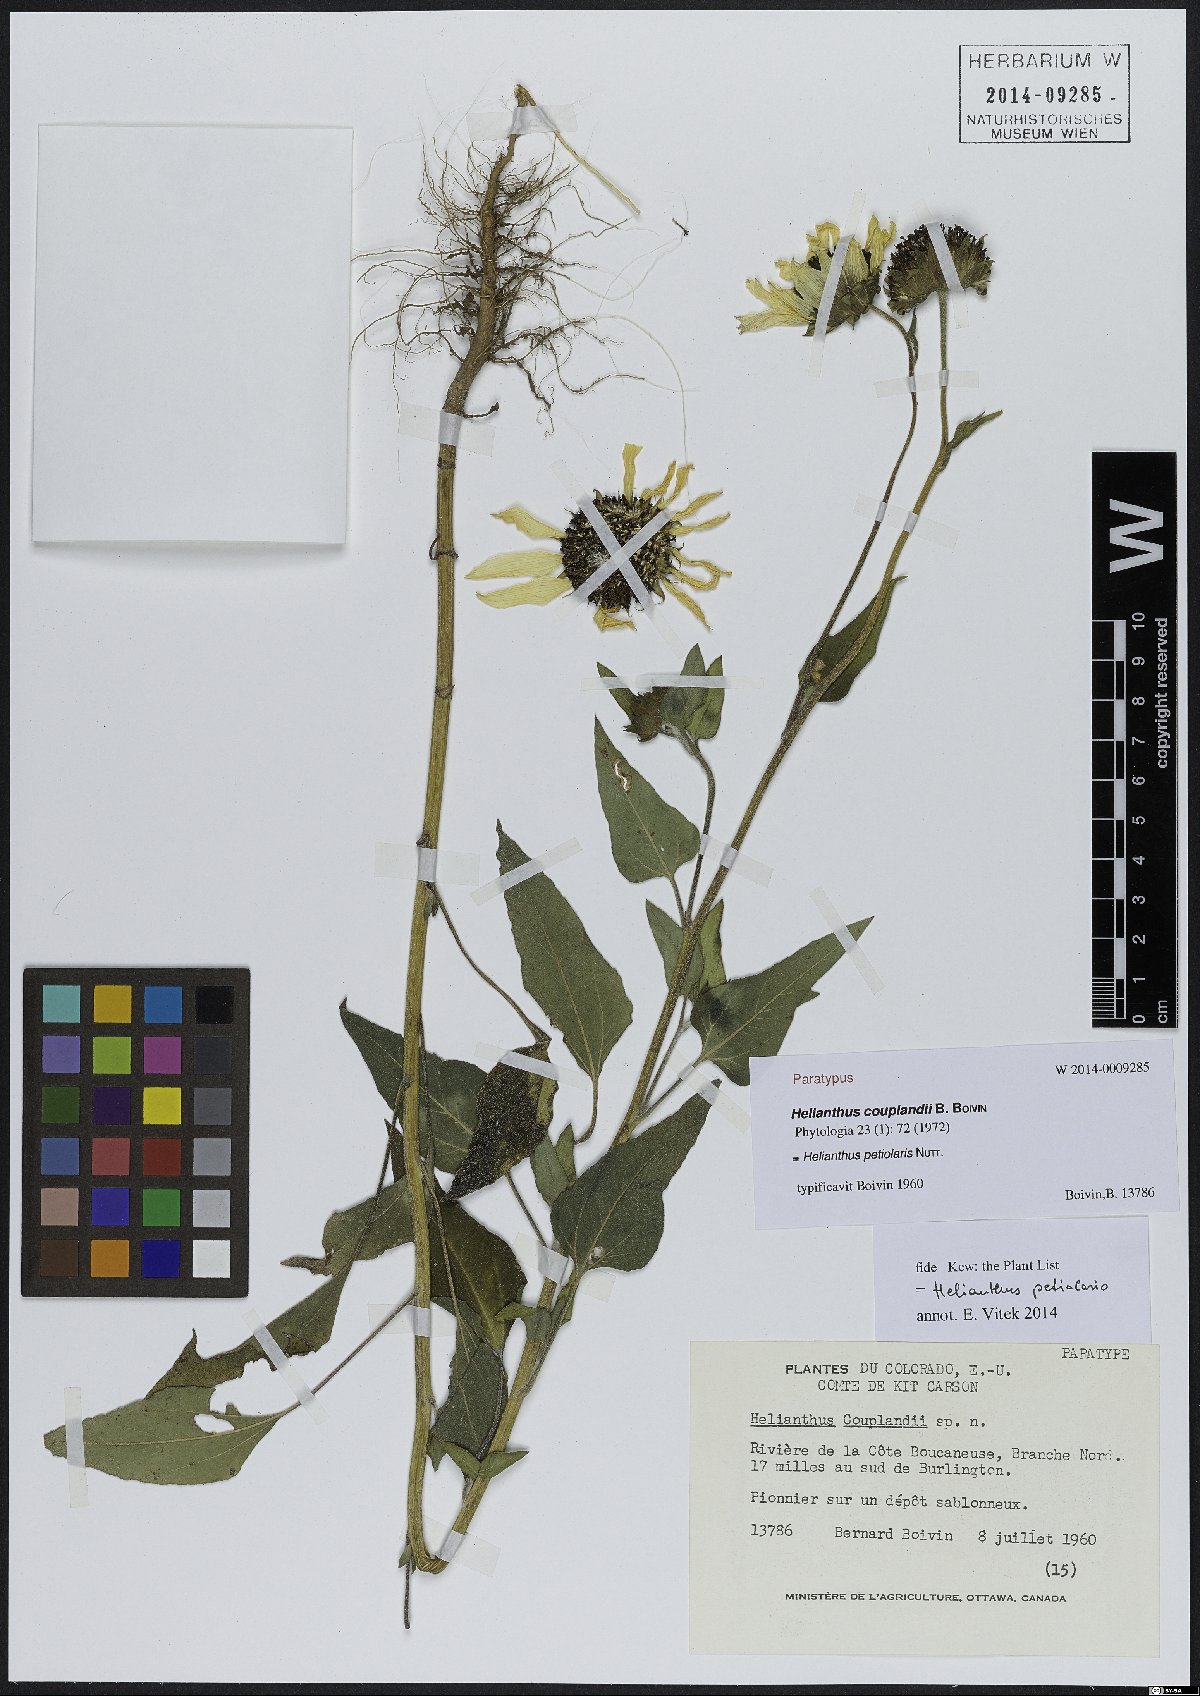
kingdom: Plantae
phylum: Tracheophyta
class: Magnoliopsida
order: Asterales
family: Asteraceae
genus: Helianthus
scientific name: Helianthus petiolaris
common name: Lesser sunflower
